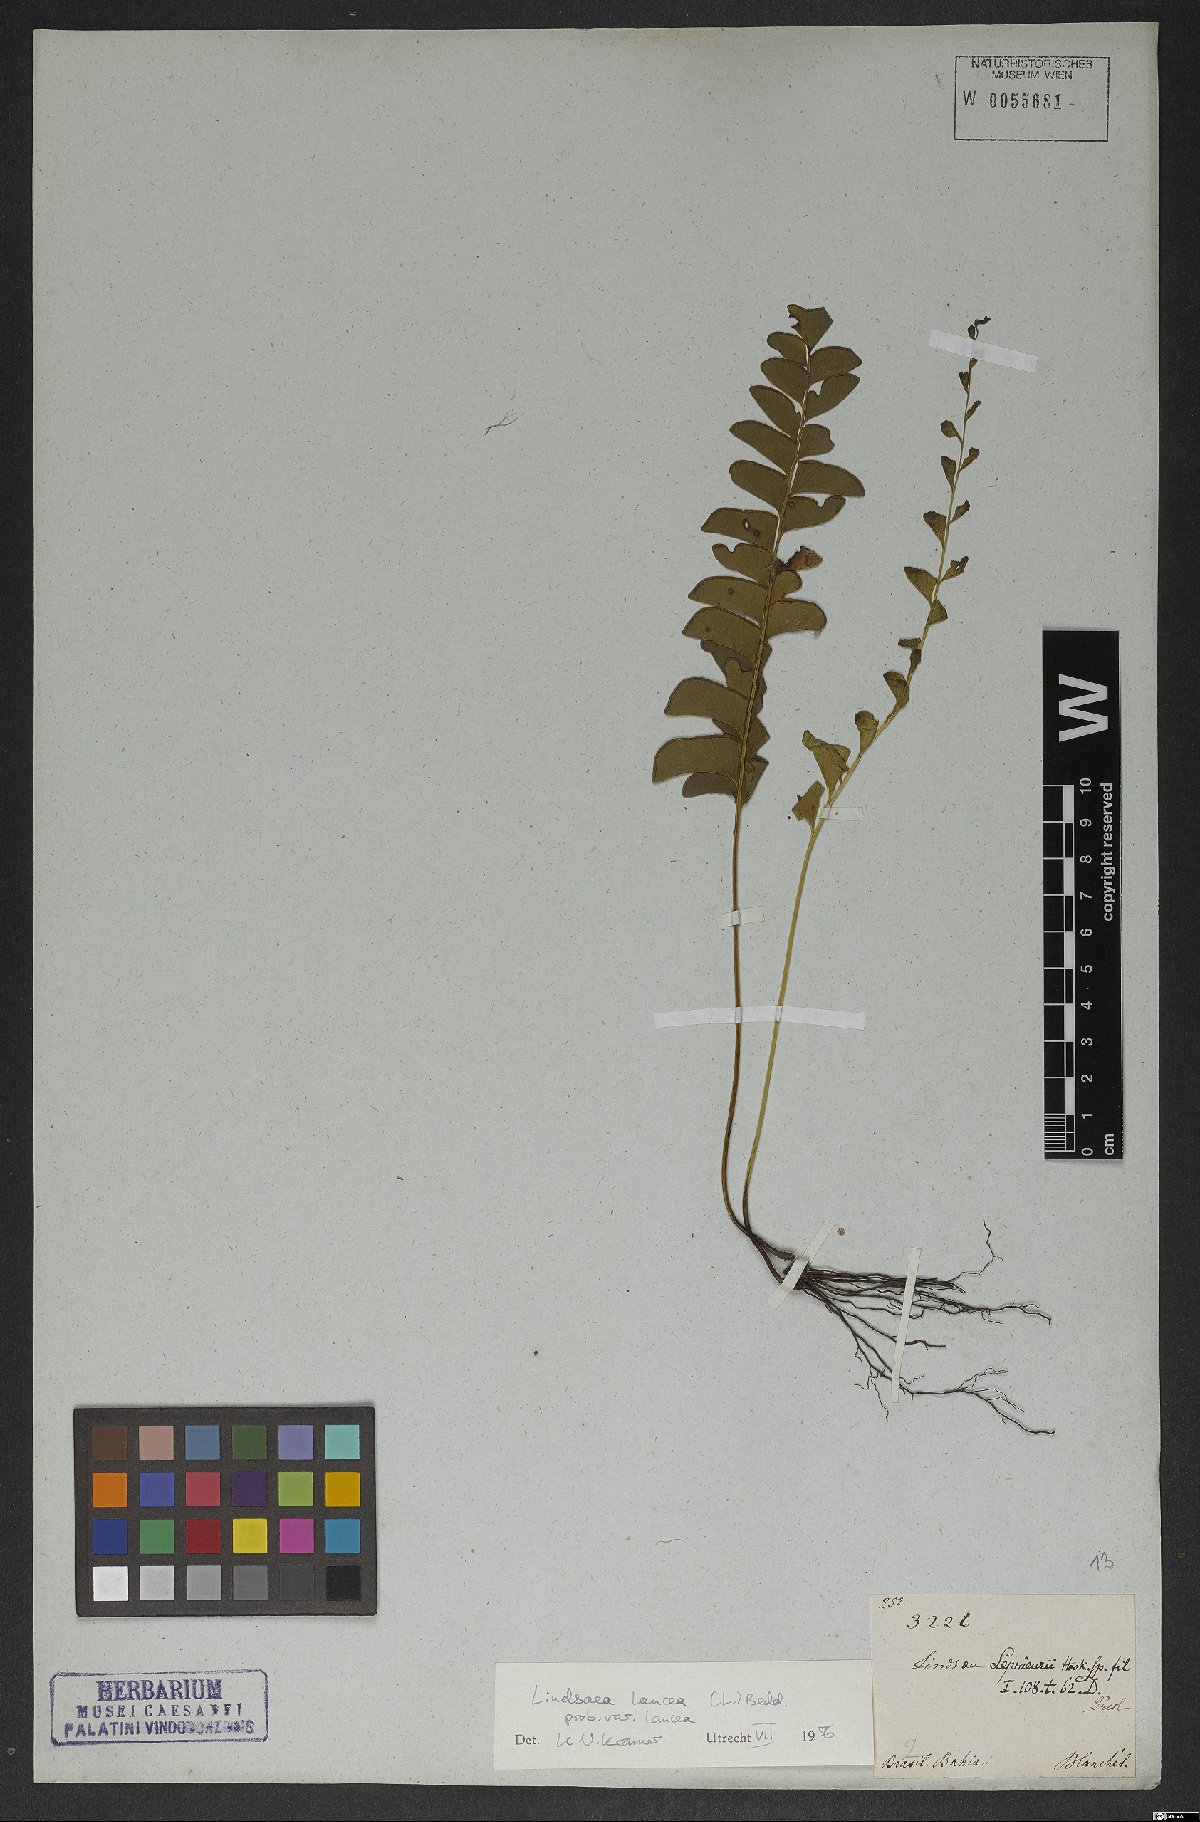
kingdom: Plantae
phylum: Tracheophyta
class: Polypodiopsida
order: Polypodiales
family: Lindsaeaceae
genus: Lindsaea
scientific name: Lindsaea lancea
